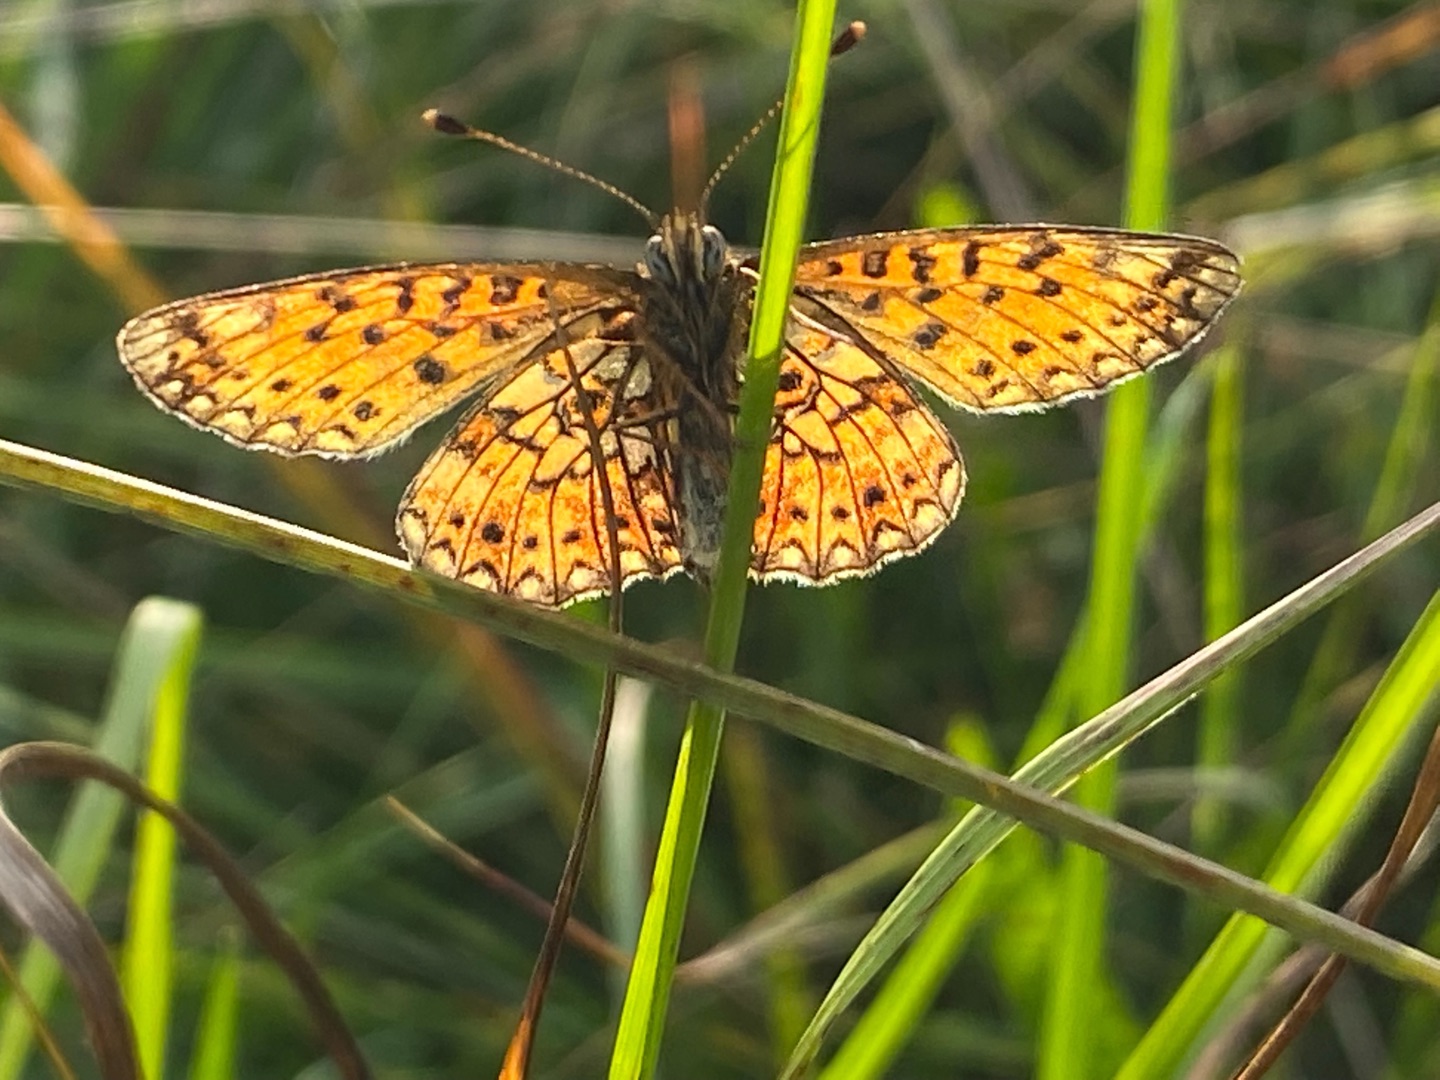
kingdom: Animalia
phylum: Arthropoda
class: Insecta
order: Lepidoptera
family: Nymphalidae
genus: Boloria
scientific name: Boloria selene
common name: Brunlig perlemorsommerfugl
